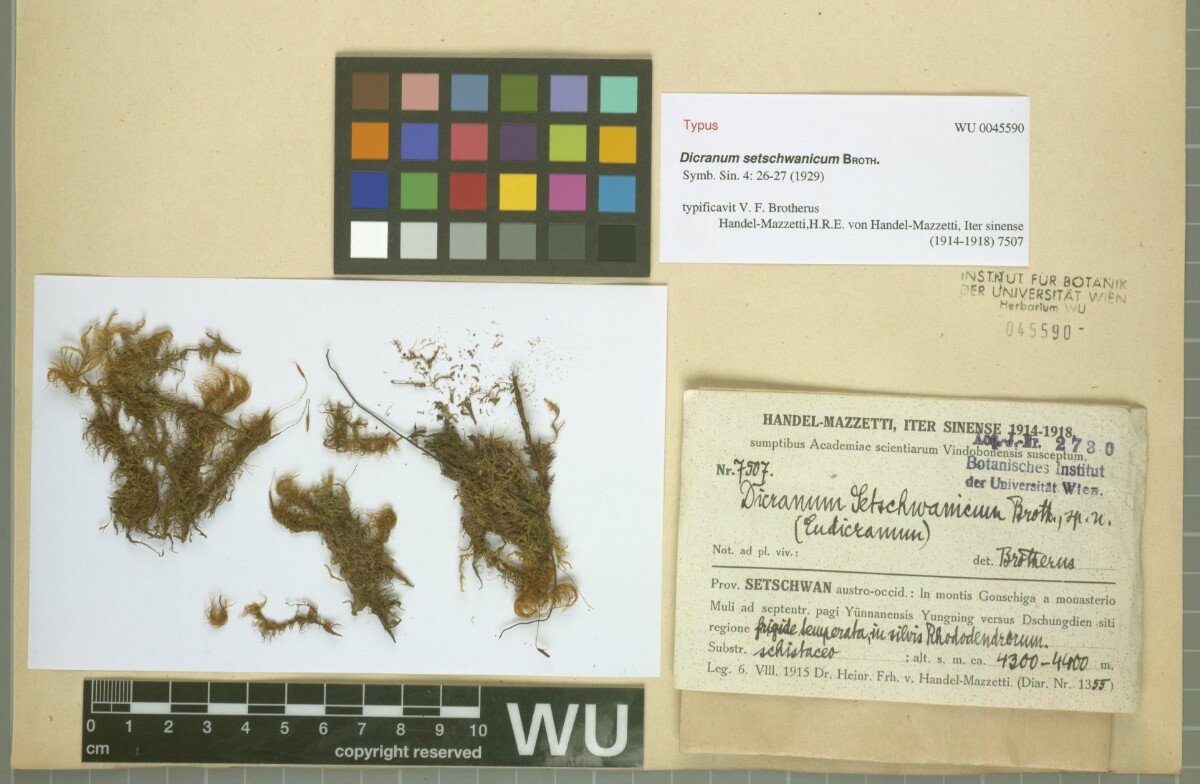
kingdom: Plantae
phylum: Bryophyta
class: Bryopsida
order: Dicranales
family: Dicranaceae
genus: Pseudochorisodontium
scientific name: Pseudochorisodontium setschwanicum
